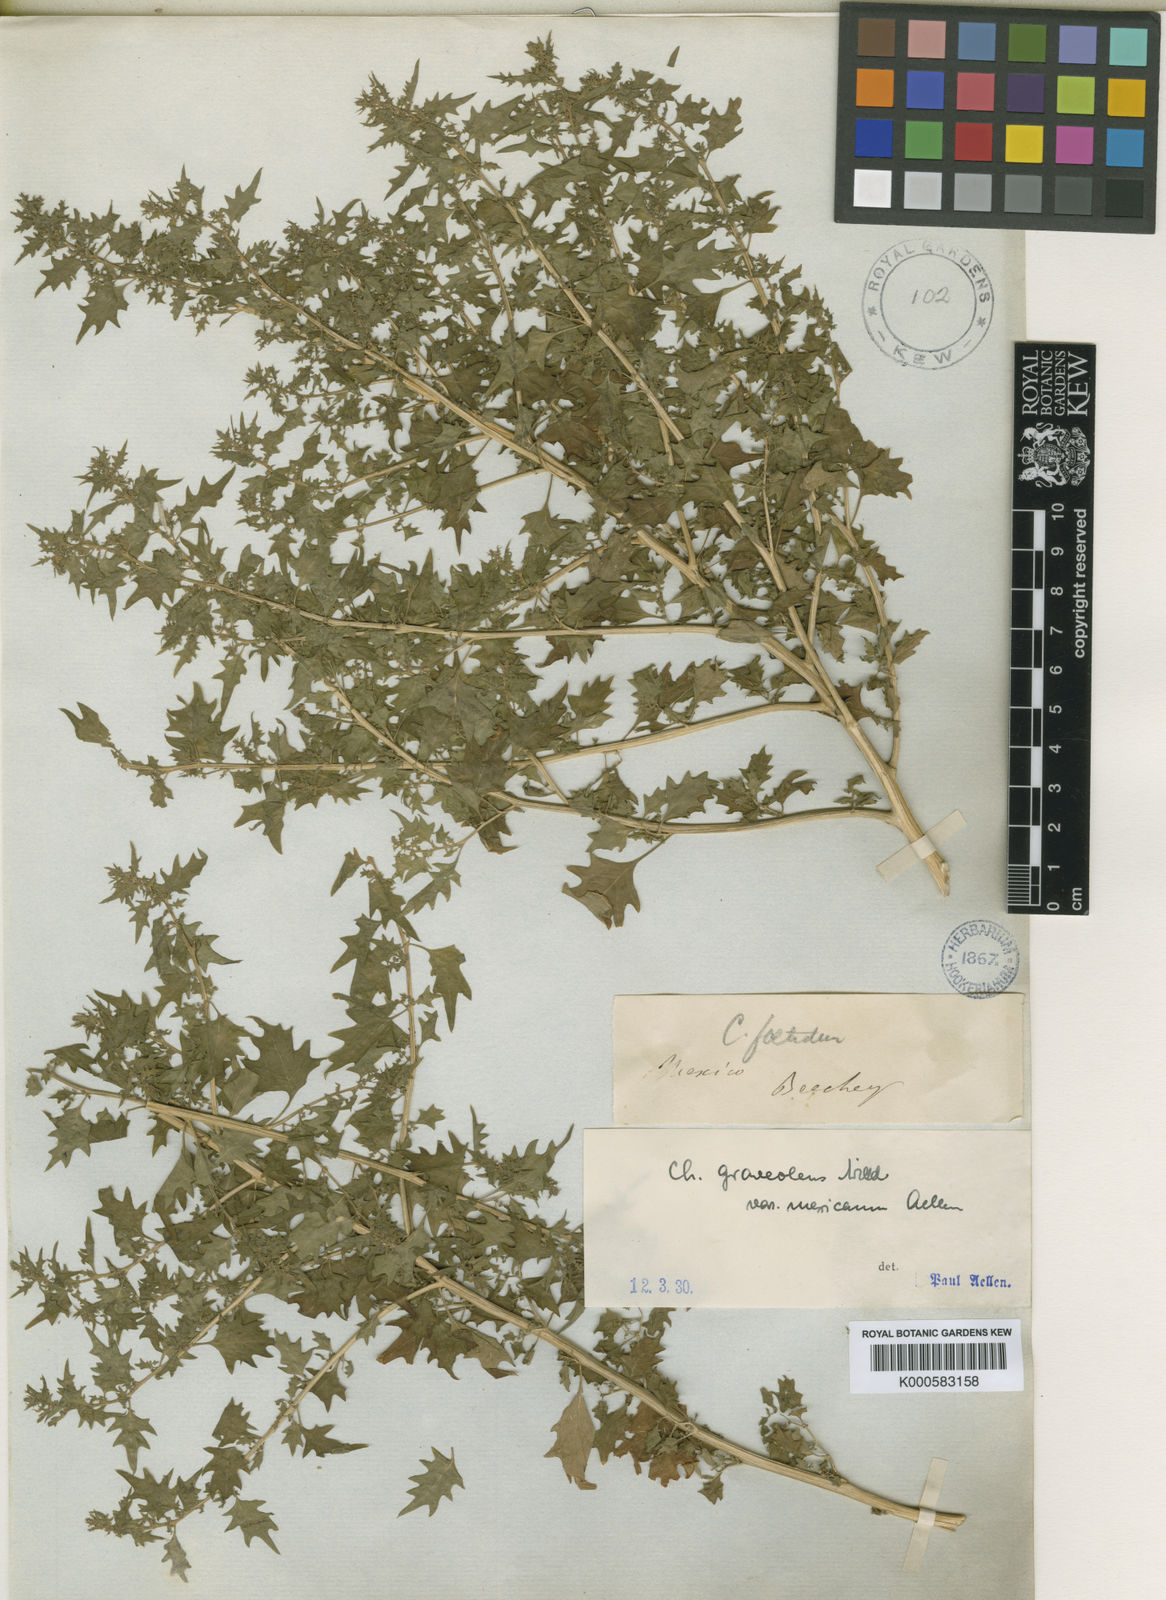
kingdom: Plantae
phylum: Tracheophyta
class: Magnoliopsida
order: Caryophyllales
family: Amaranthaceae
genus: Dysphania
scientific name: Dysphania graveolens
